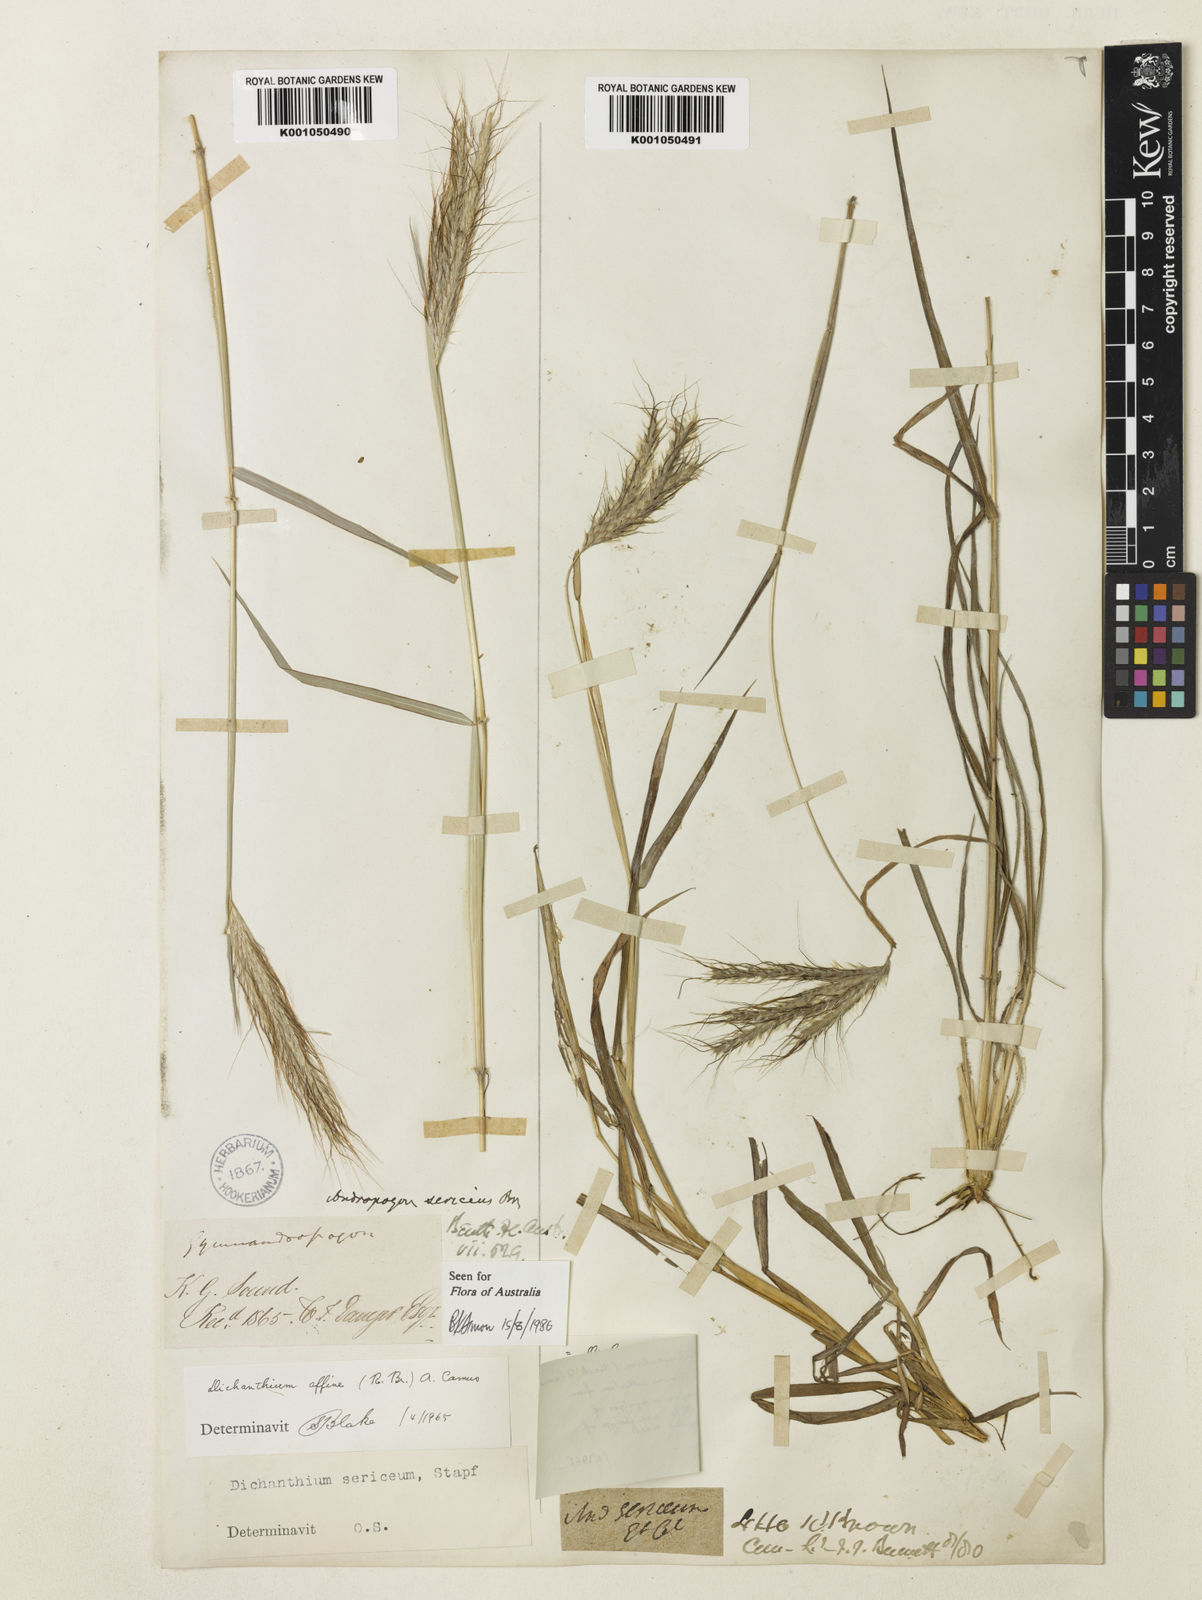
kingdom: Plantae
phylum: Tracheophyta
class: Magnoliopsida
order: Fabales
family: Fabaceae
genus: Hedysarum
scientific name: Hedysarum elymaiticum
